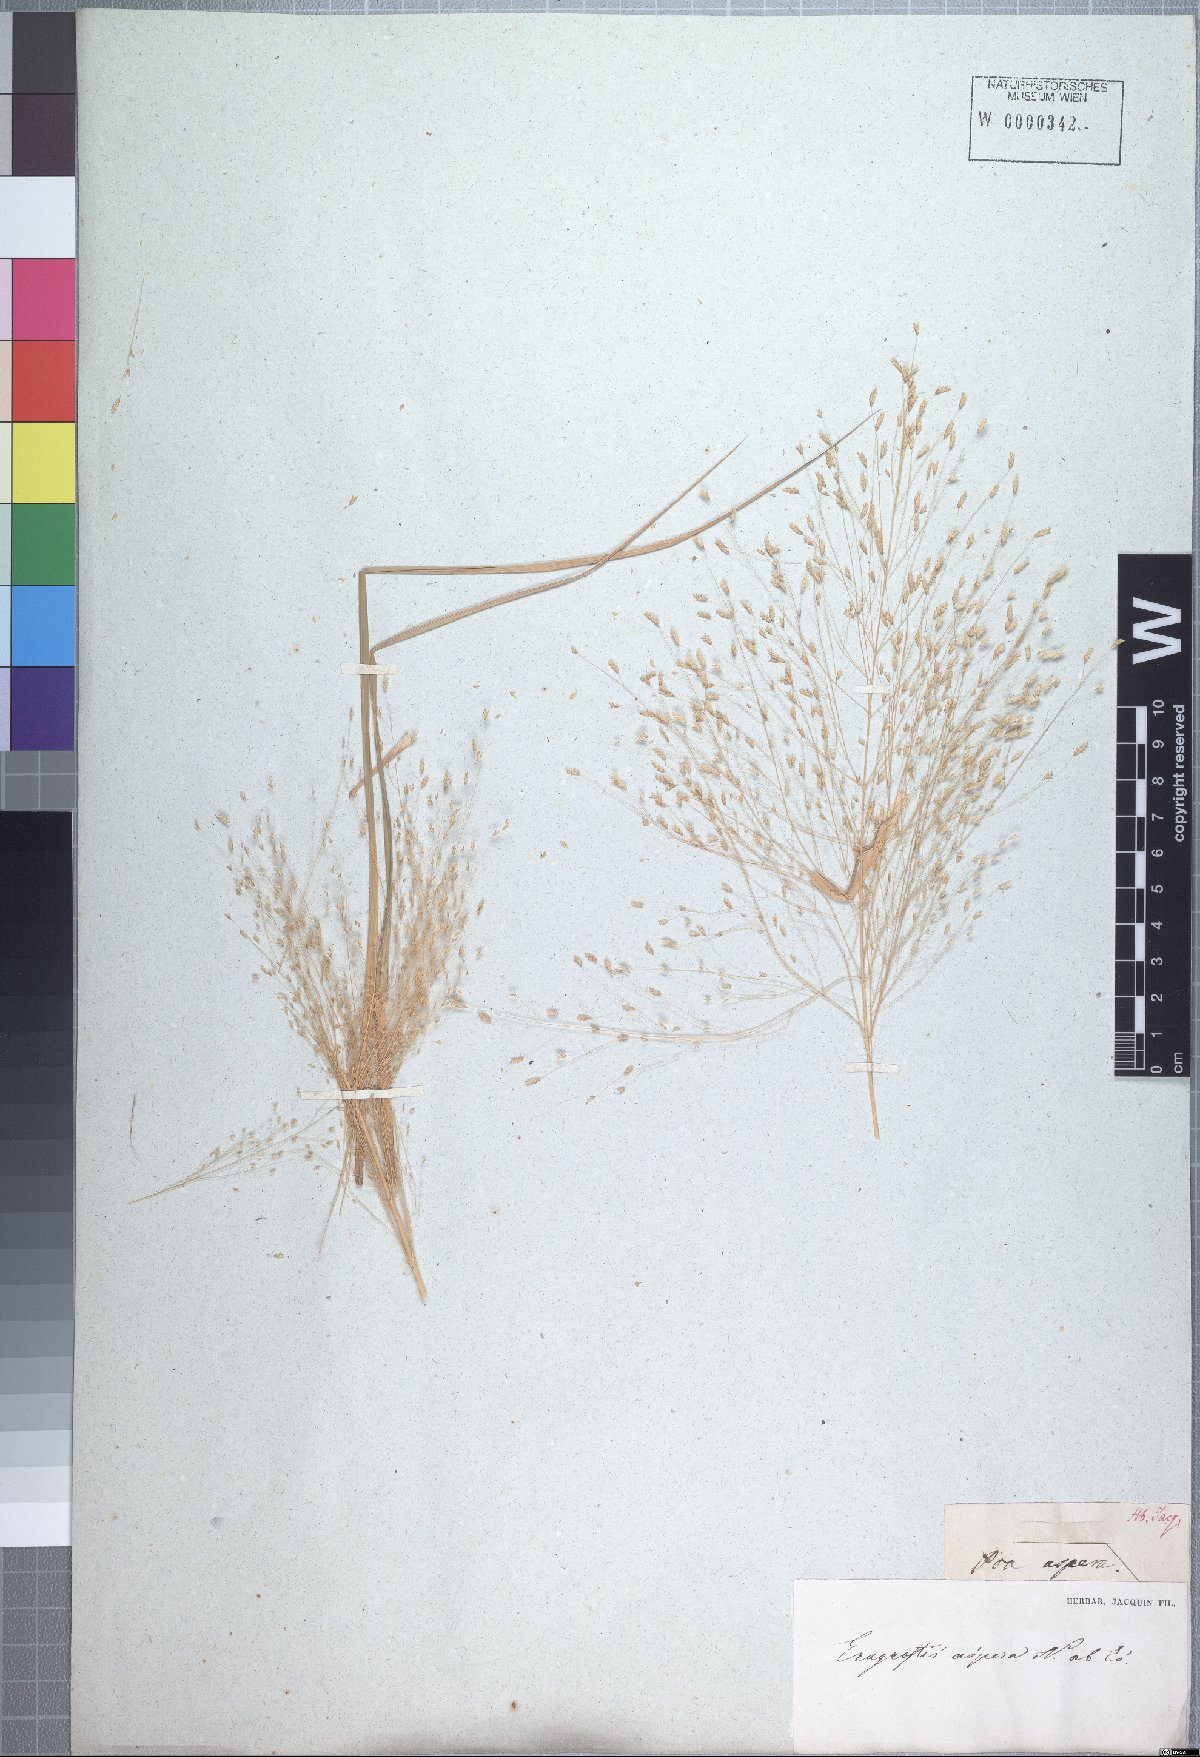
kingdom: Plantae
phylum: Tracheophyta
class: Liliopsida
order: Poales
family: Poaceae
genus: Eragrostis
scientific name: Eragrostis aspera
